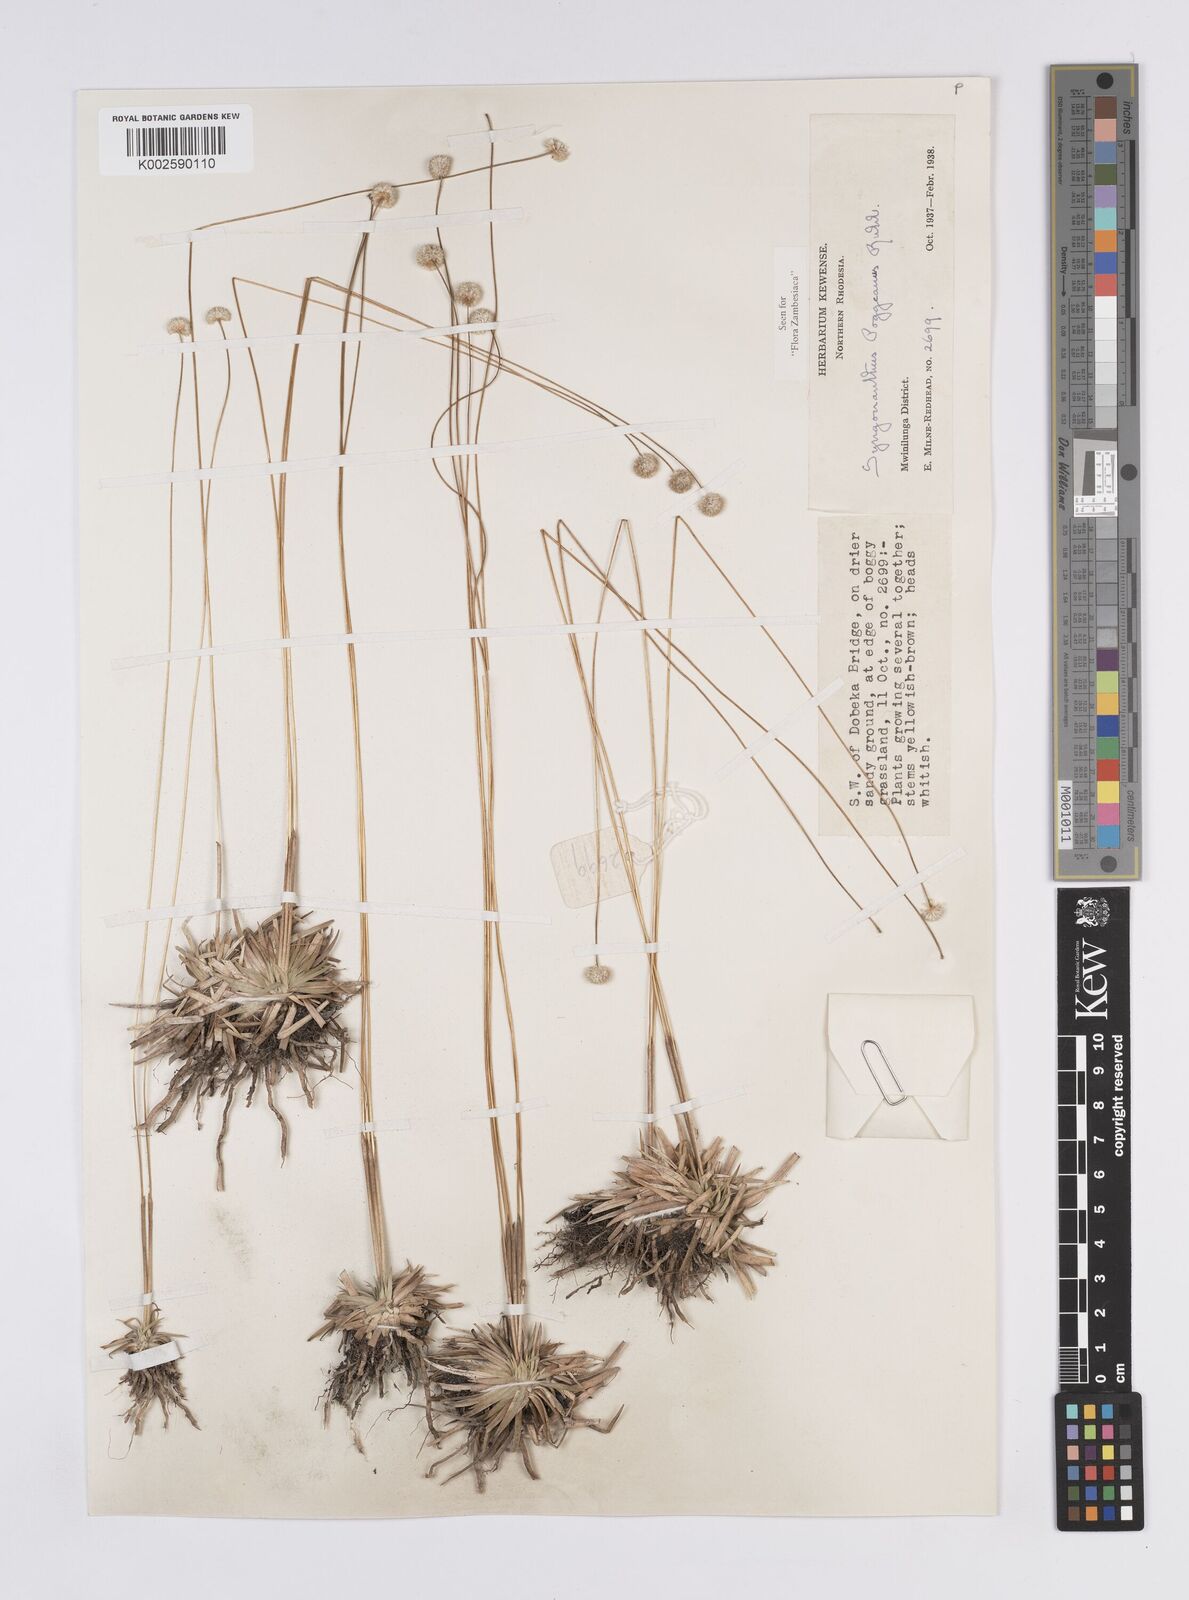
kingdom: Plantae
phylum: Tracheophyta
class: Liliopsida
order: Poales
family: Eriocaulaceae
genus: Syngonanthus
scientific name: Syngonanthus poggeanus
